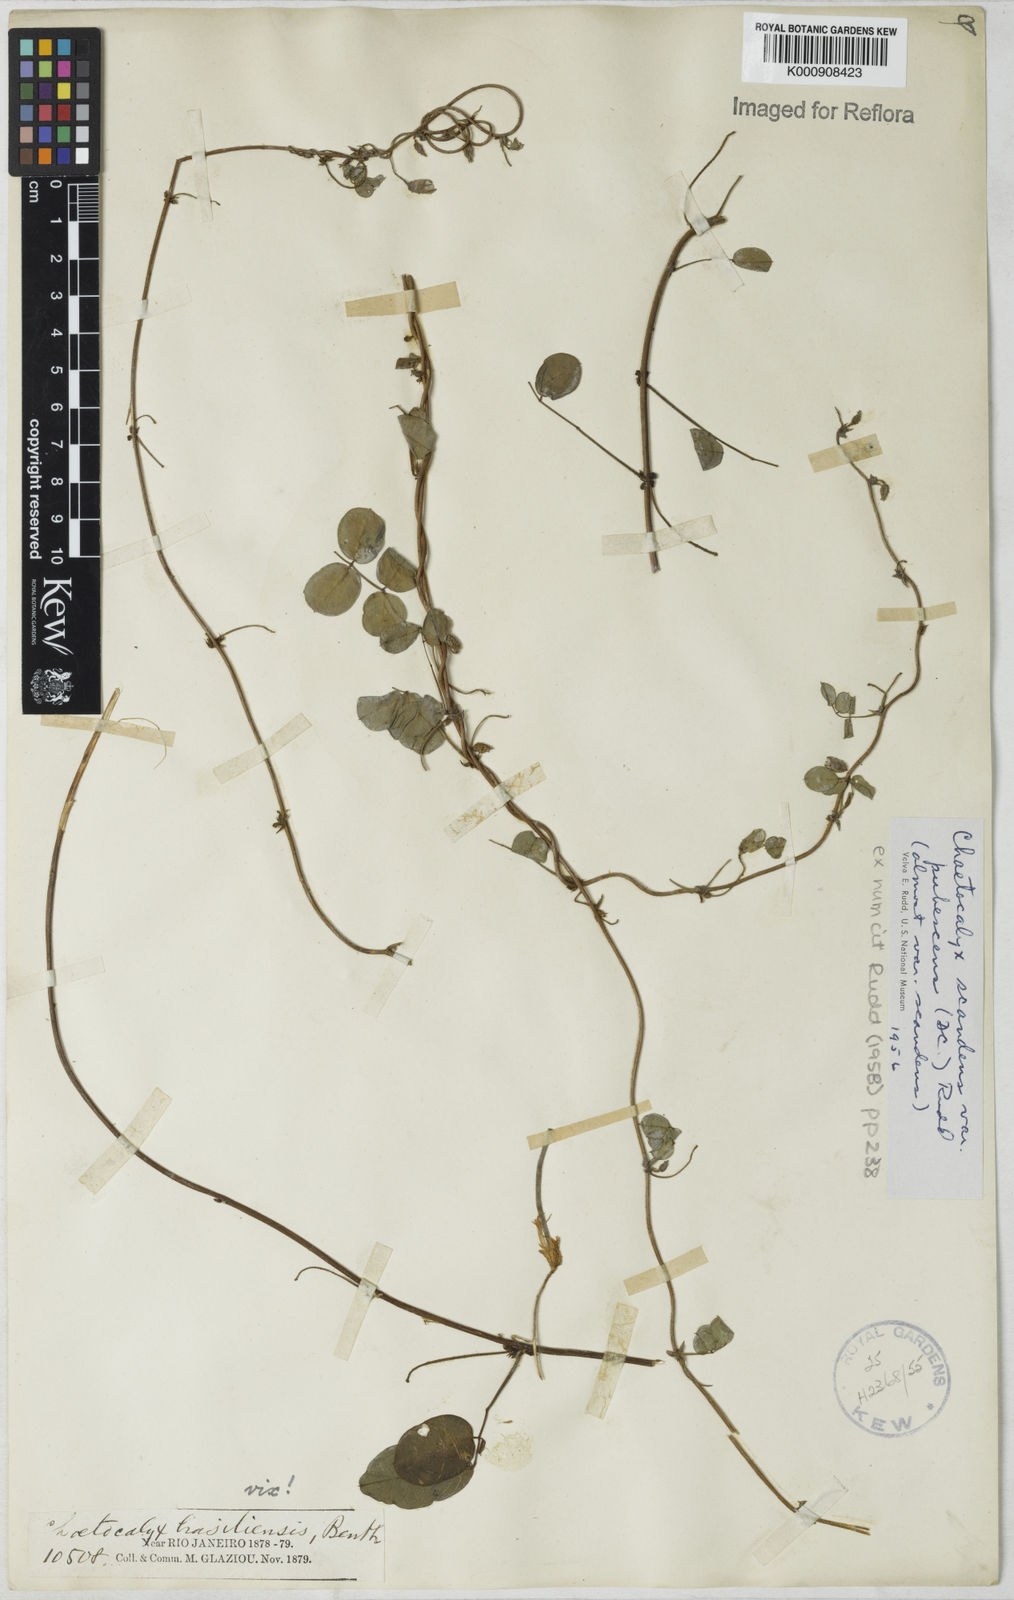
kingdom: Plantae
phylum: Tracheophyta
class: Magnoliopsida
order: Fabales
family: Fabaceae
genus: Nissolia
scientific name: Nissolia vincentina
